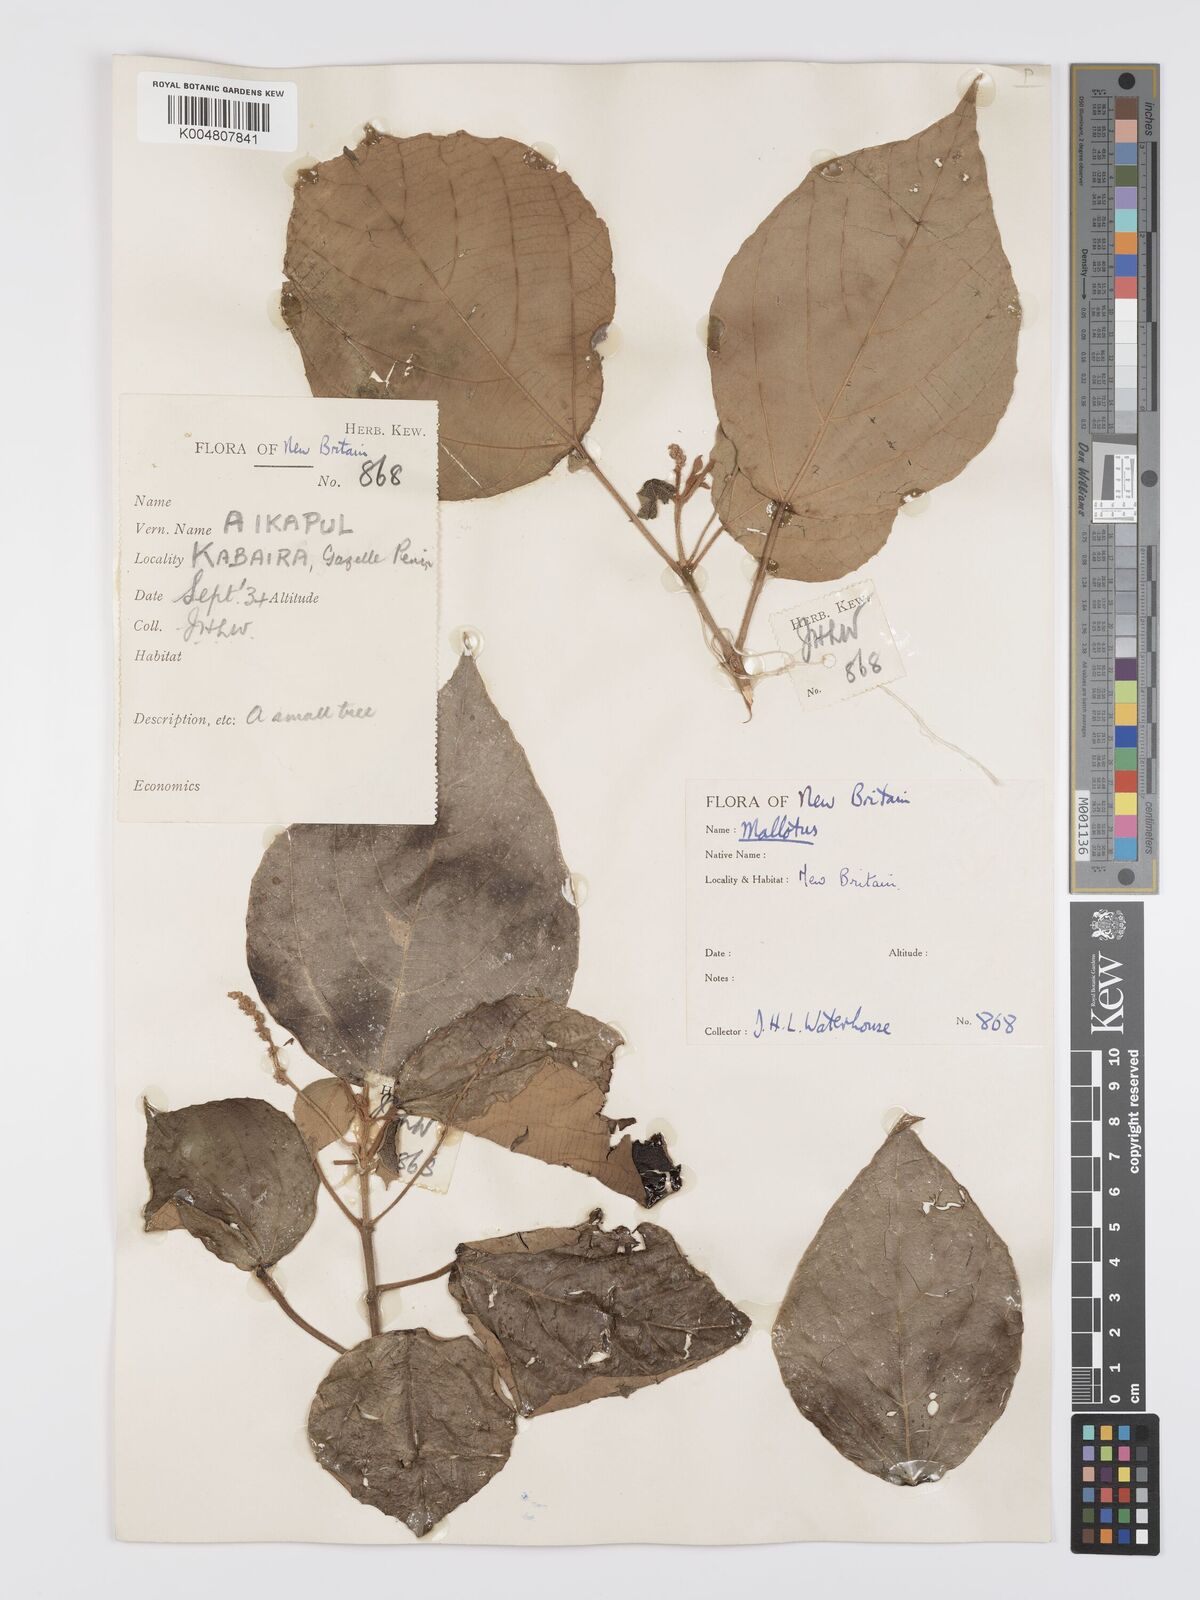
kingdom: Plantae
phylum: Tracheophyta
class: Magnoliopsida
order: Malpighiales
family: Euphorbiaceae
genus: Mallotus
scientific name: Mallotus tiliifolius
